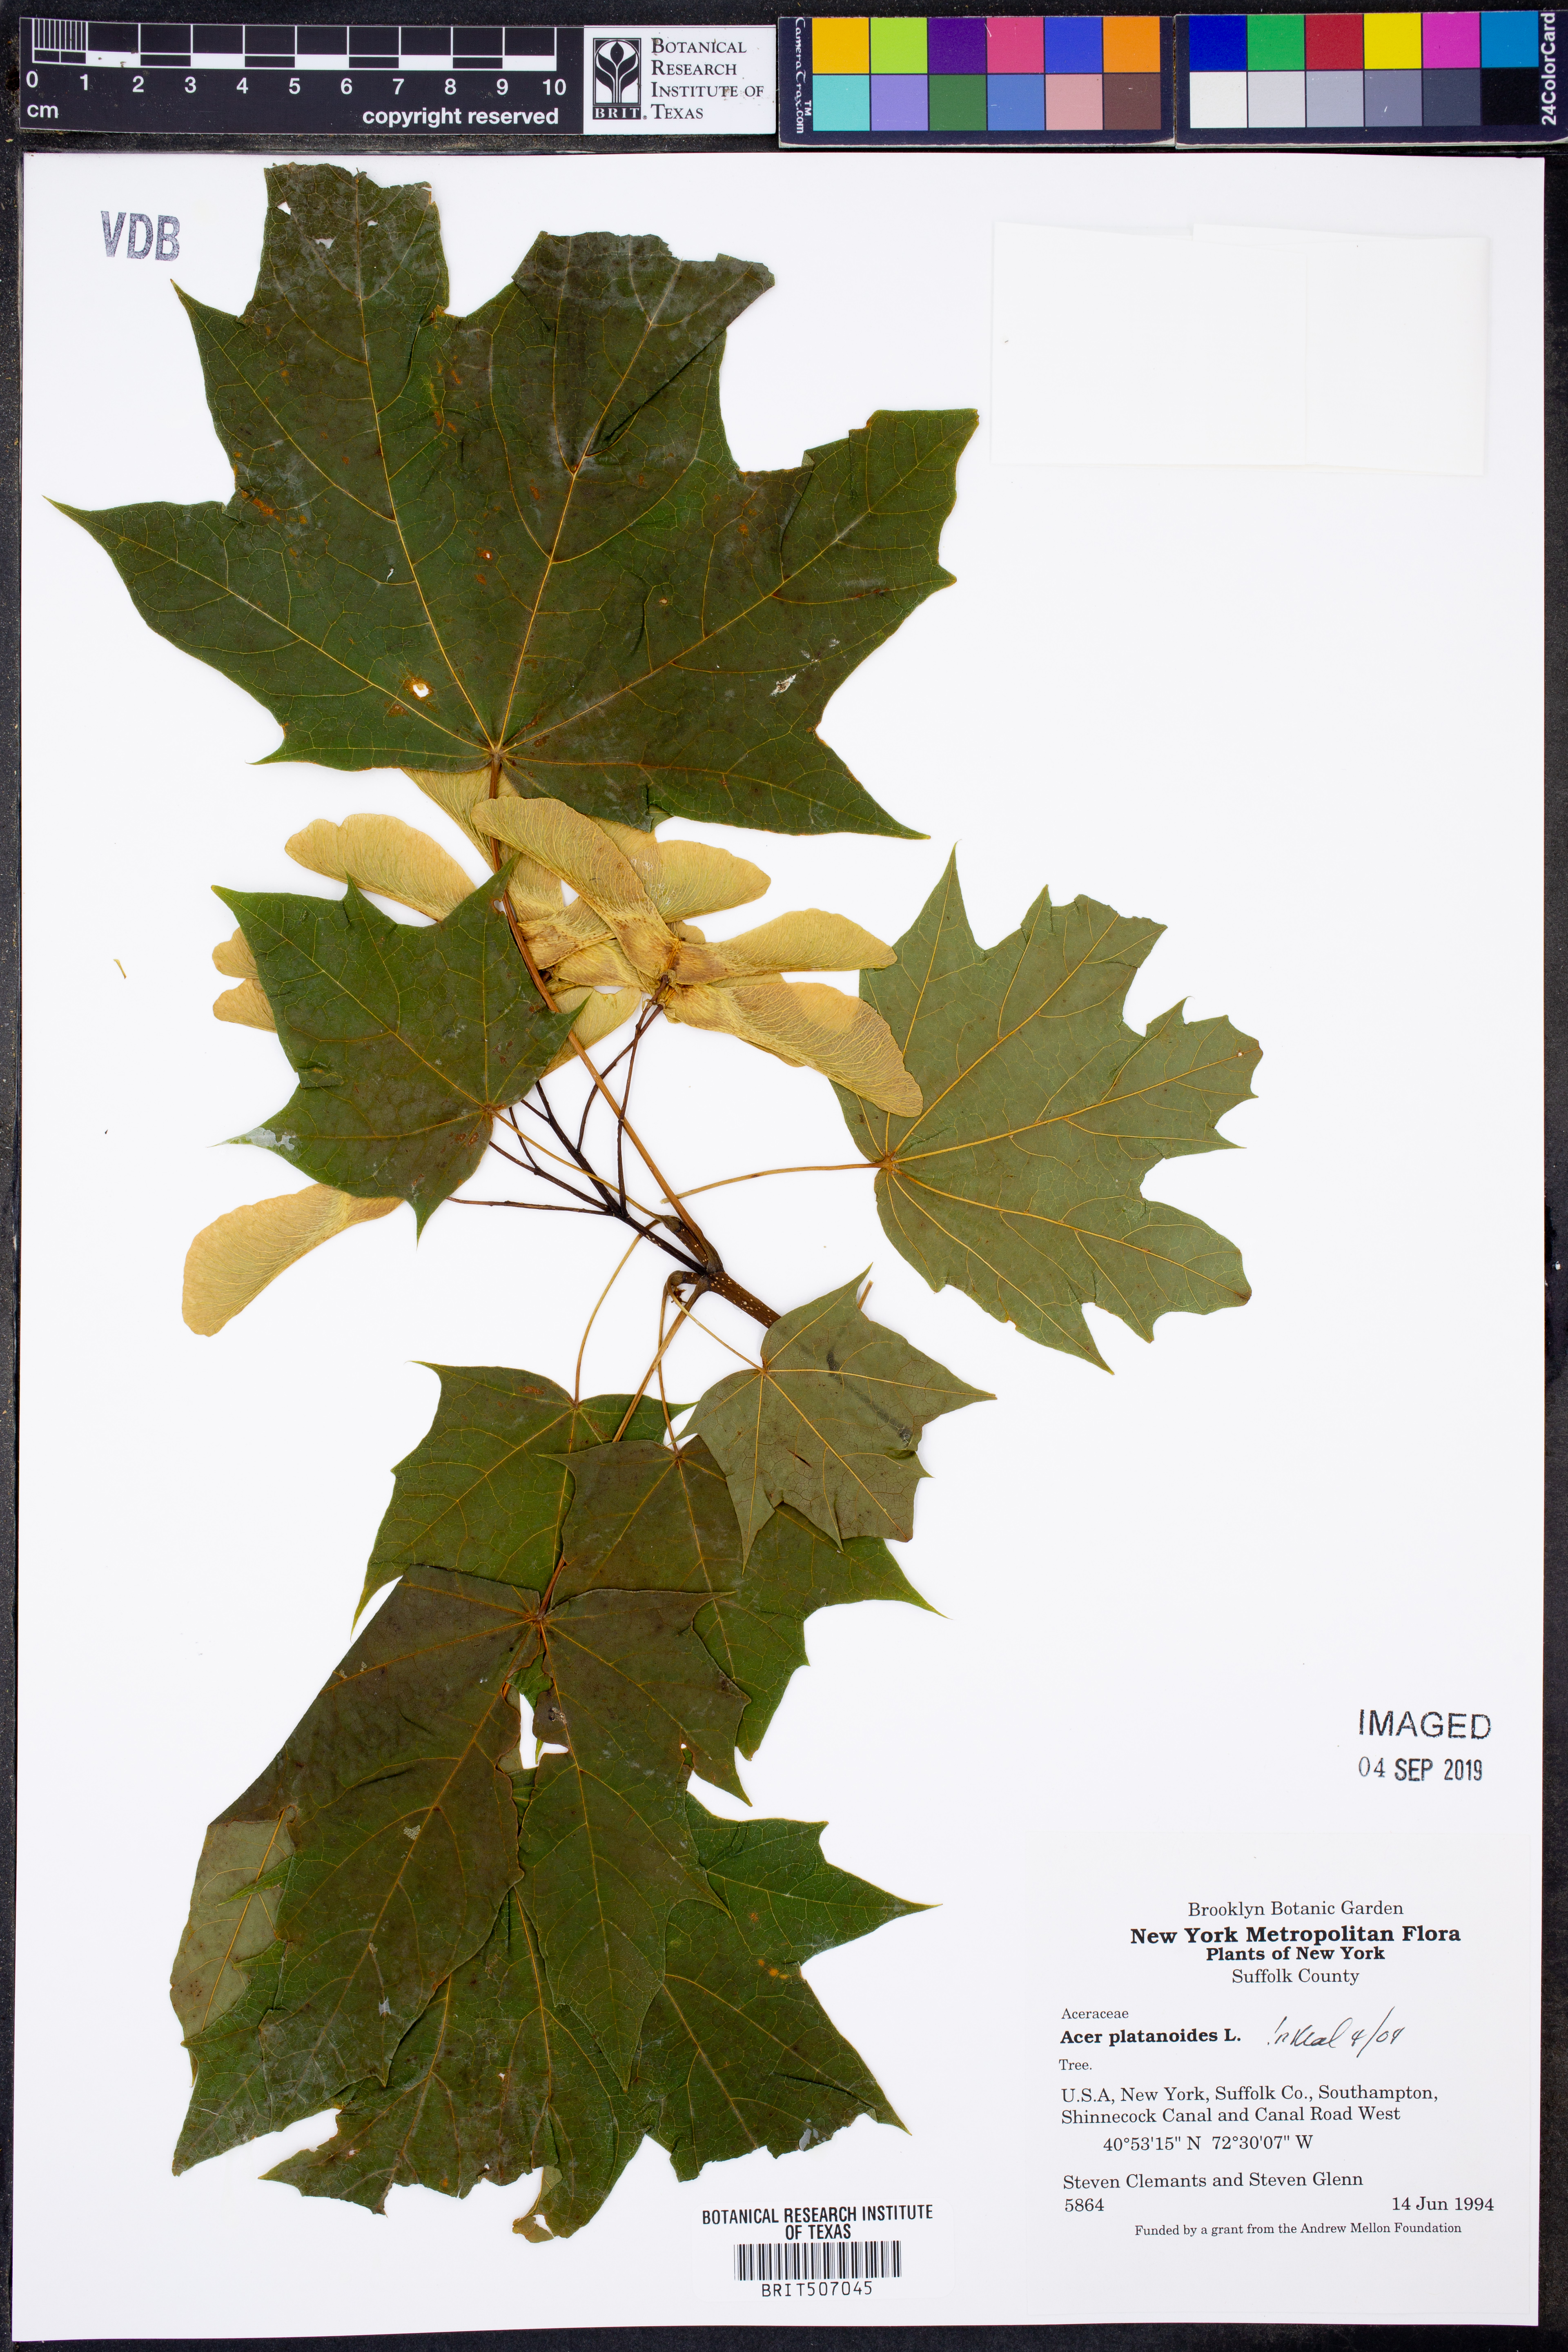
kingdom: Plantae
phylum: Tracheophyta
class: Magnoliopsida
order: Sapindales
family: Sapindaceae
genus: Acer
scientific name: Acer platanoides
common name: Norway maple
